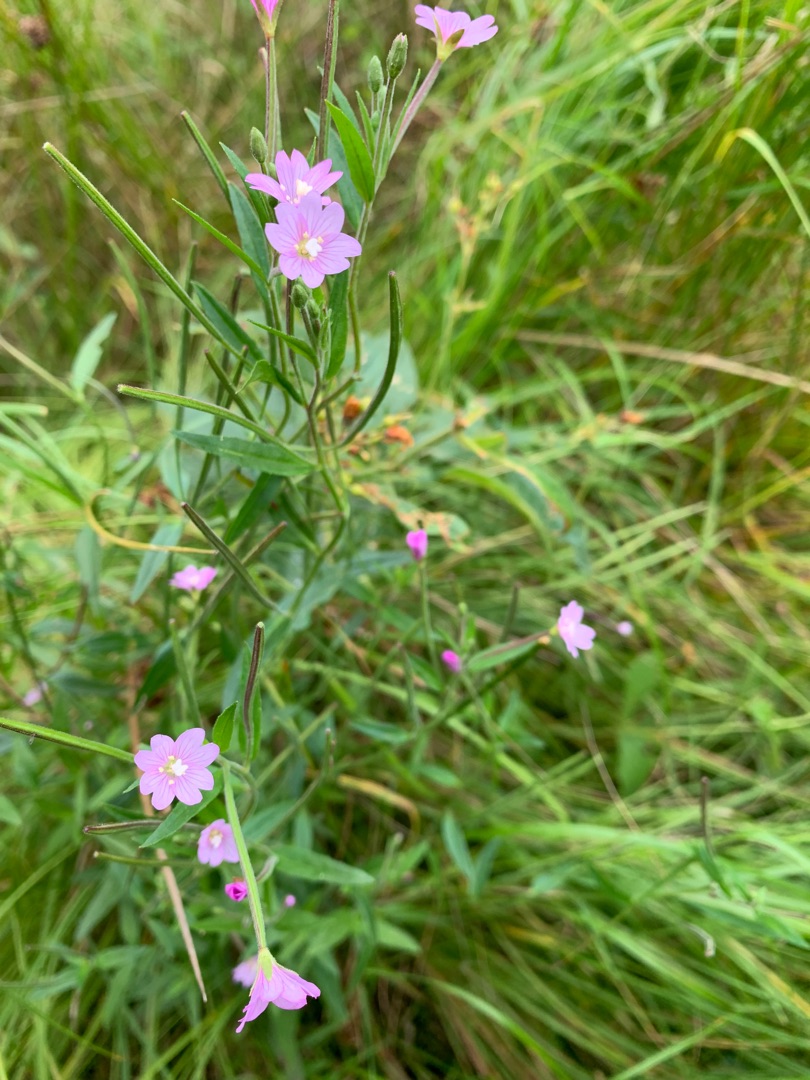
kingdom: Plantae
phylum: Tracheophyta
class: Magnoliopsida
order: Myrtales
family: Onagraceae
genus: Epilobium
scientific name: Epilobium palustre
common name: Kær-dueurt
